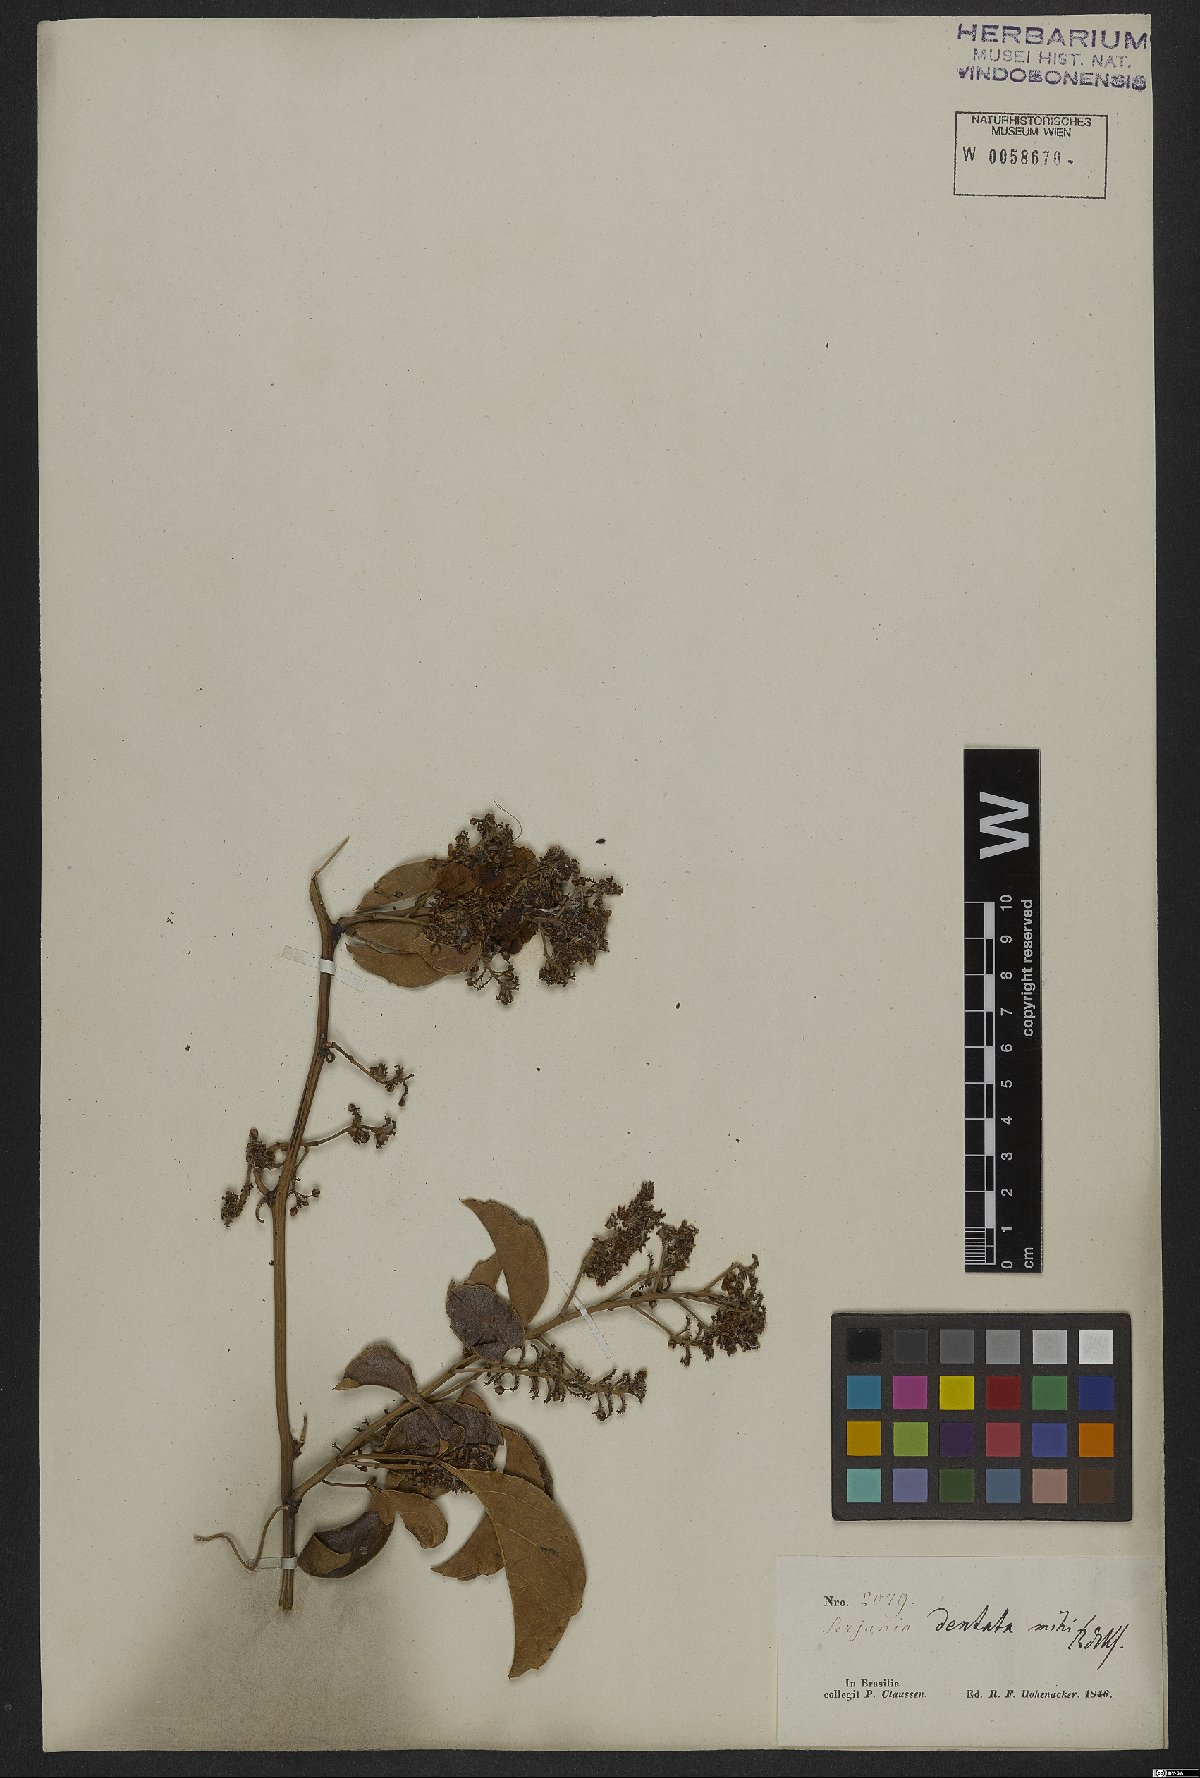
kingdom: Plantae
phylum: Tracheophyta
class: Magnoliopsida
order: Sapindales
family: Sapindaceae
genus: Serjania
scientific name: Serjania dentata
